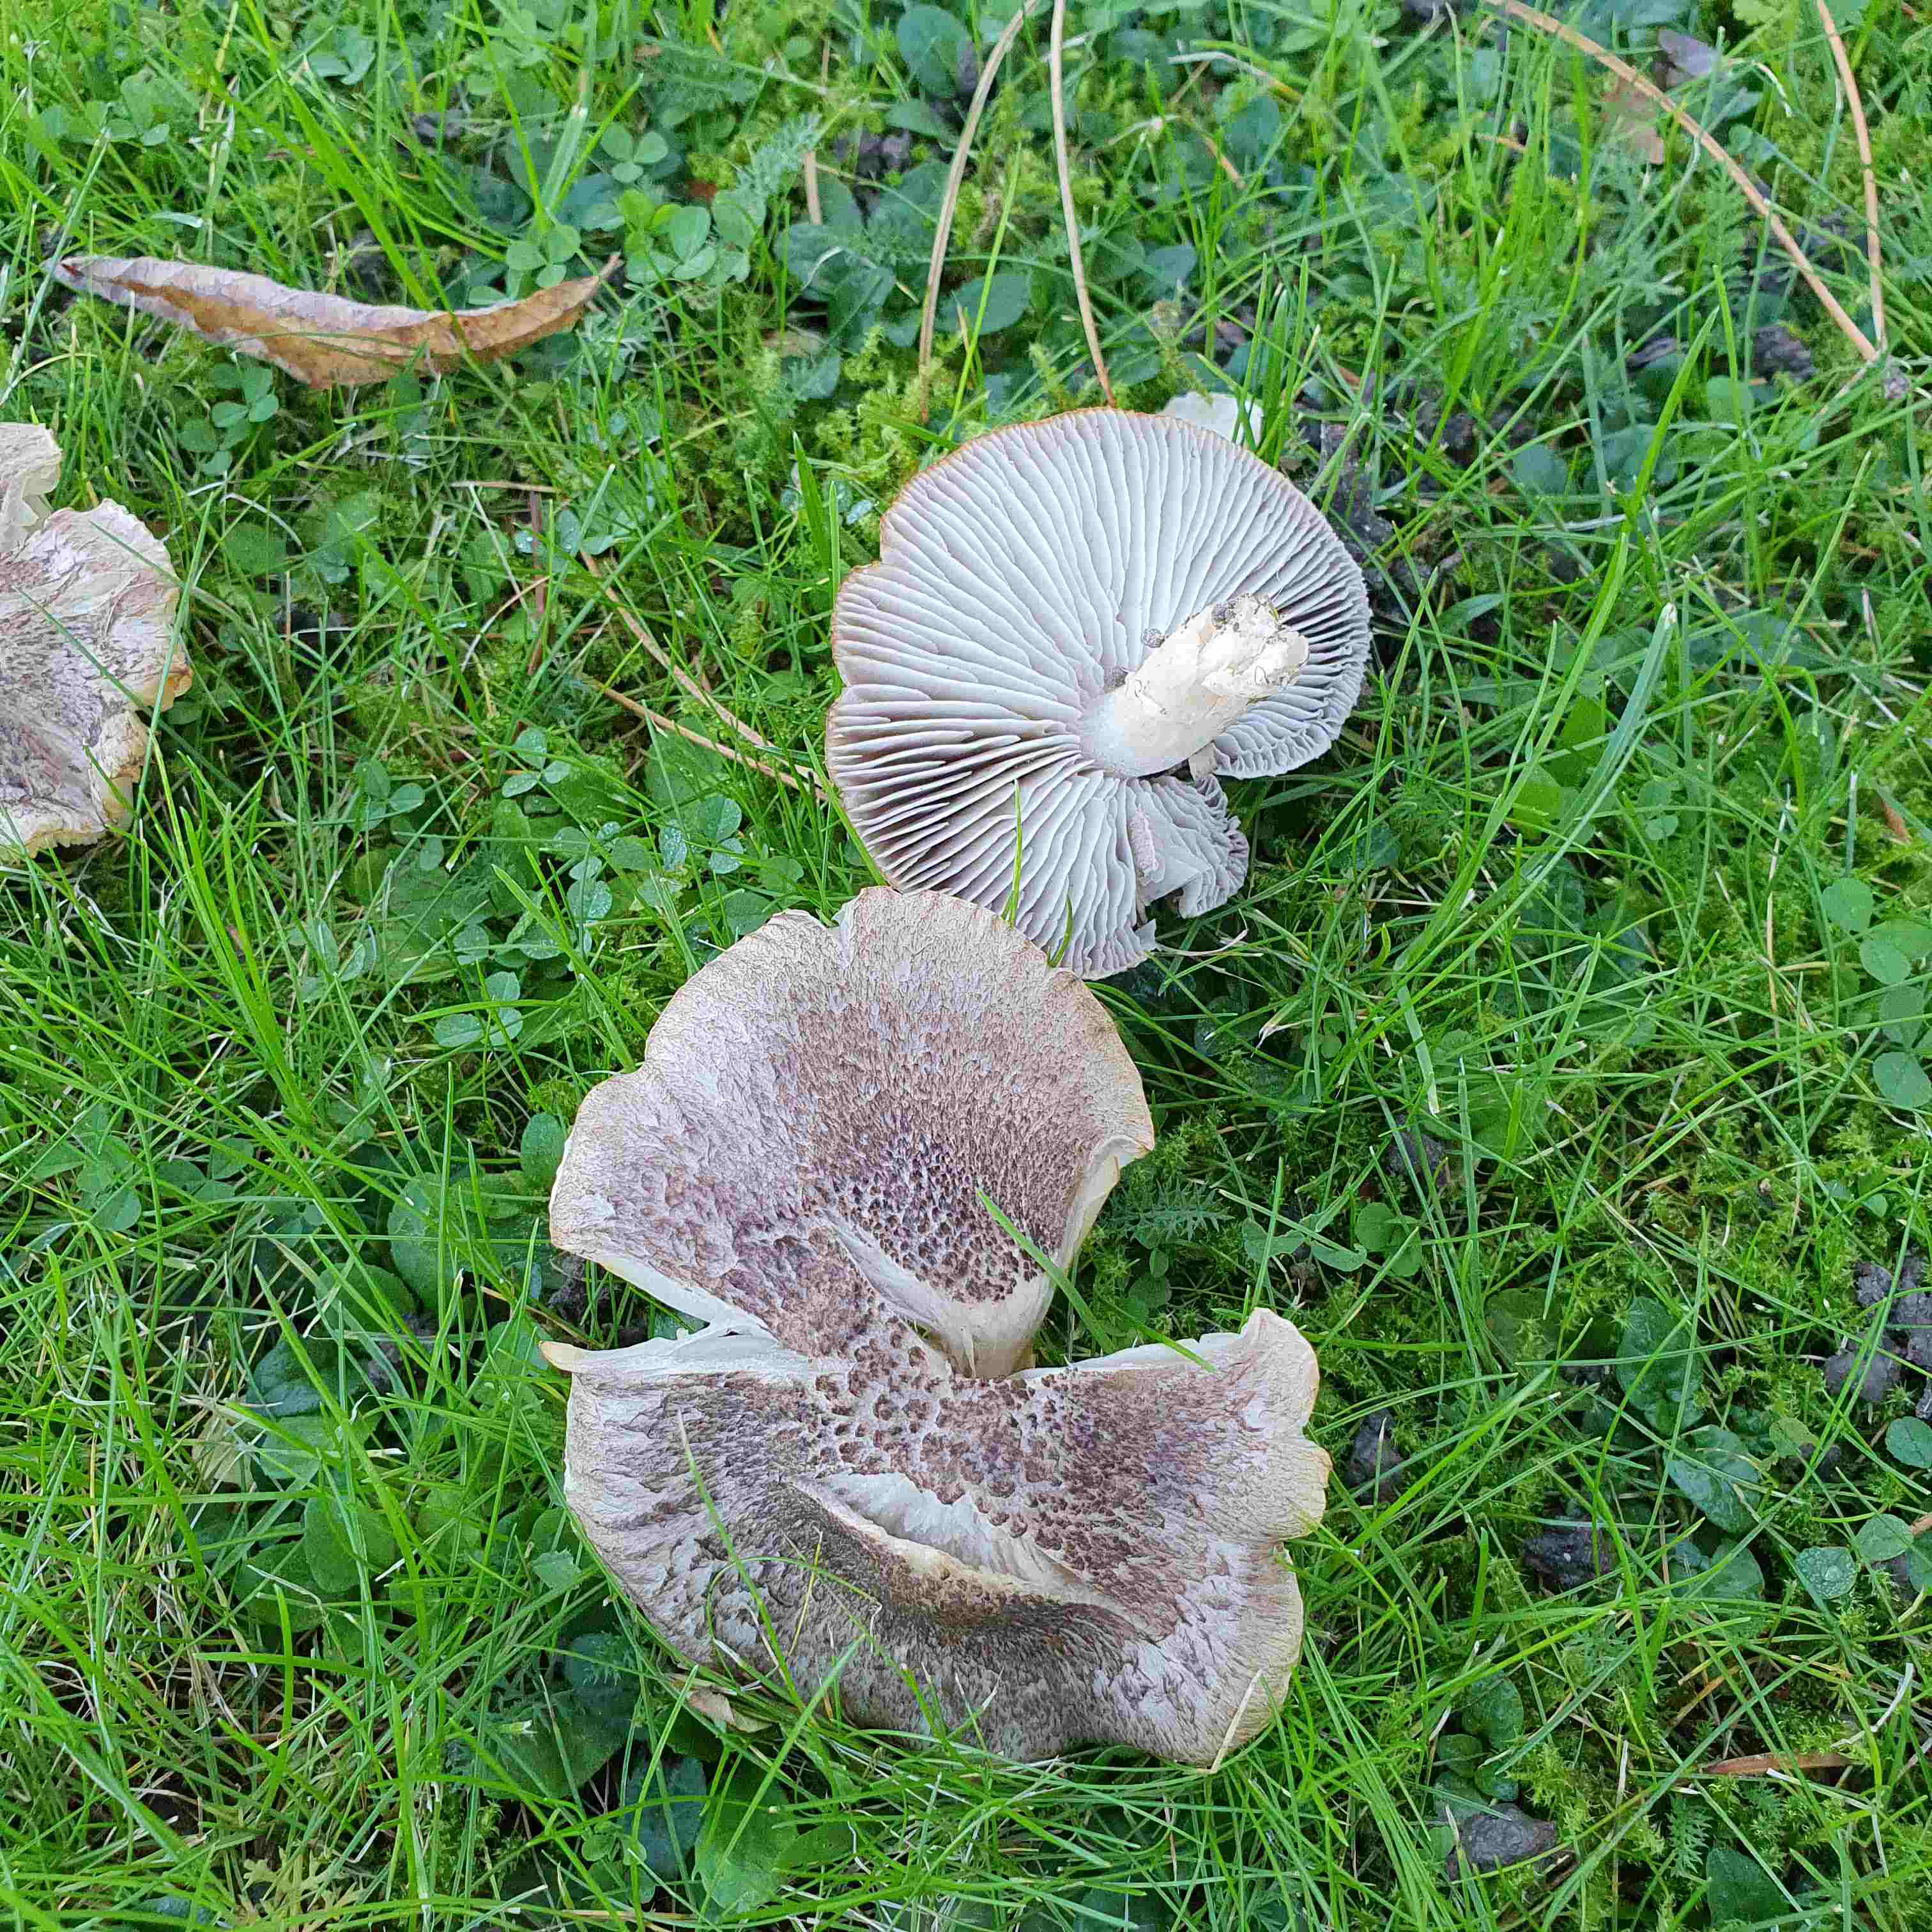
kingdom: Fungi
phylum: Basidiomycota
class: Agaricomycetes
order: Agaricales
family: Tricholomataceae
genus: Tricholoma
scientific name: Tricholoma terreum
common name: jordfarvet ridderhat
